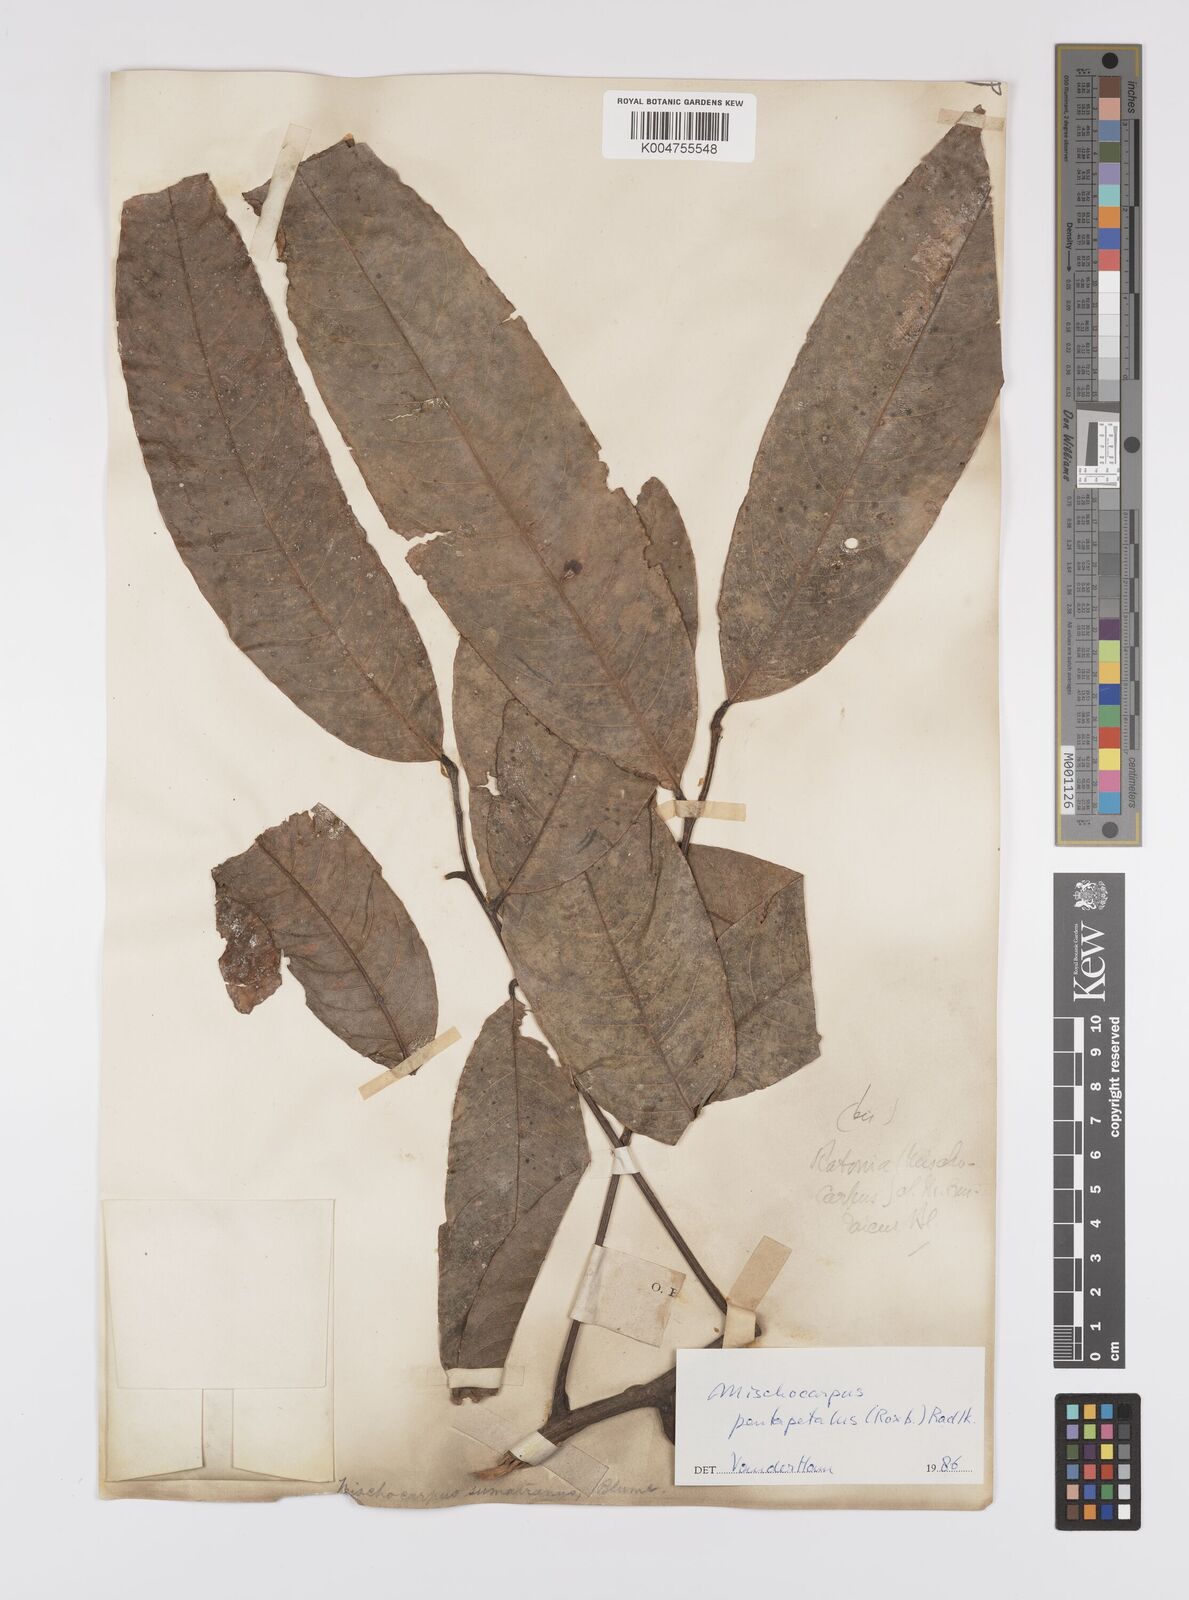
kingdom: Plantae
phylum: Tracheophyta
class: Magnoliopsida
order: Sapindales
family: Sapindaceae
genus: Mischocarpus
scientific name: Mischocarpus pentapetalus
